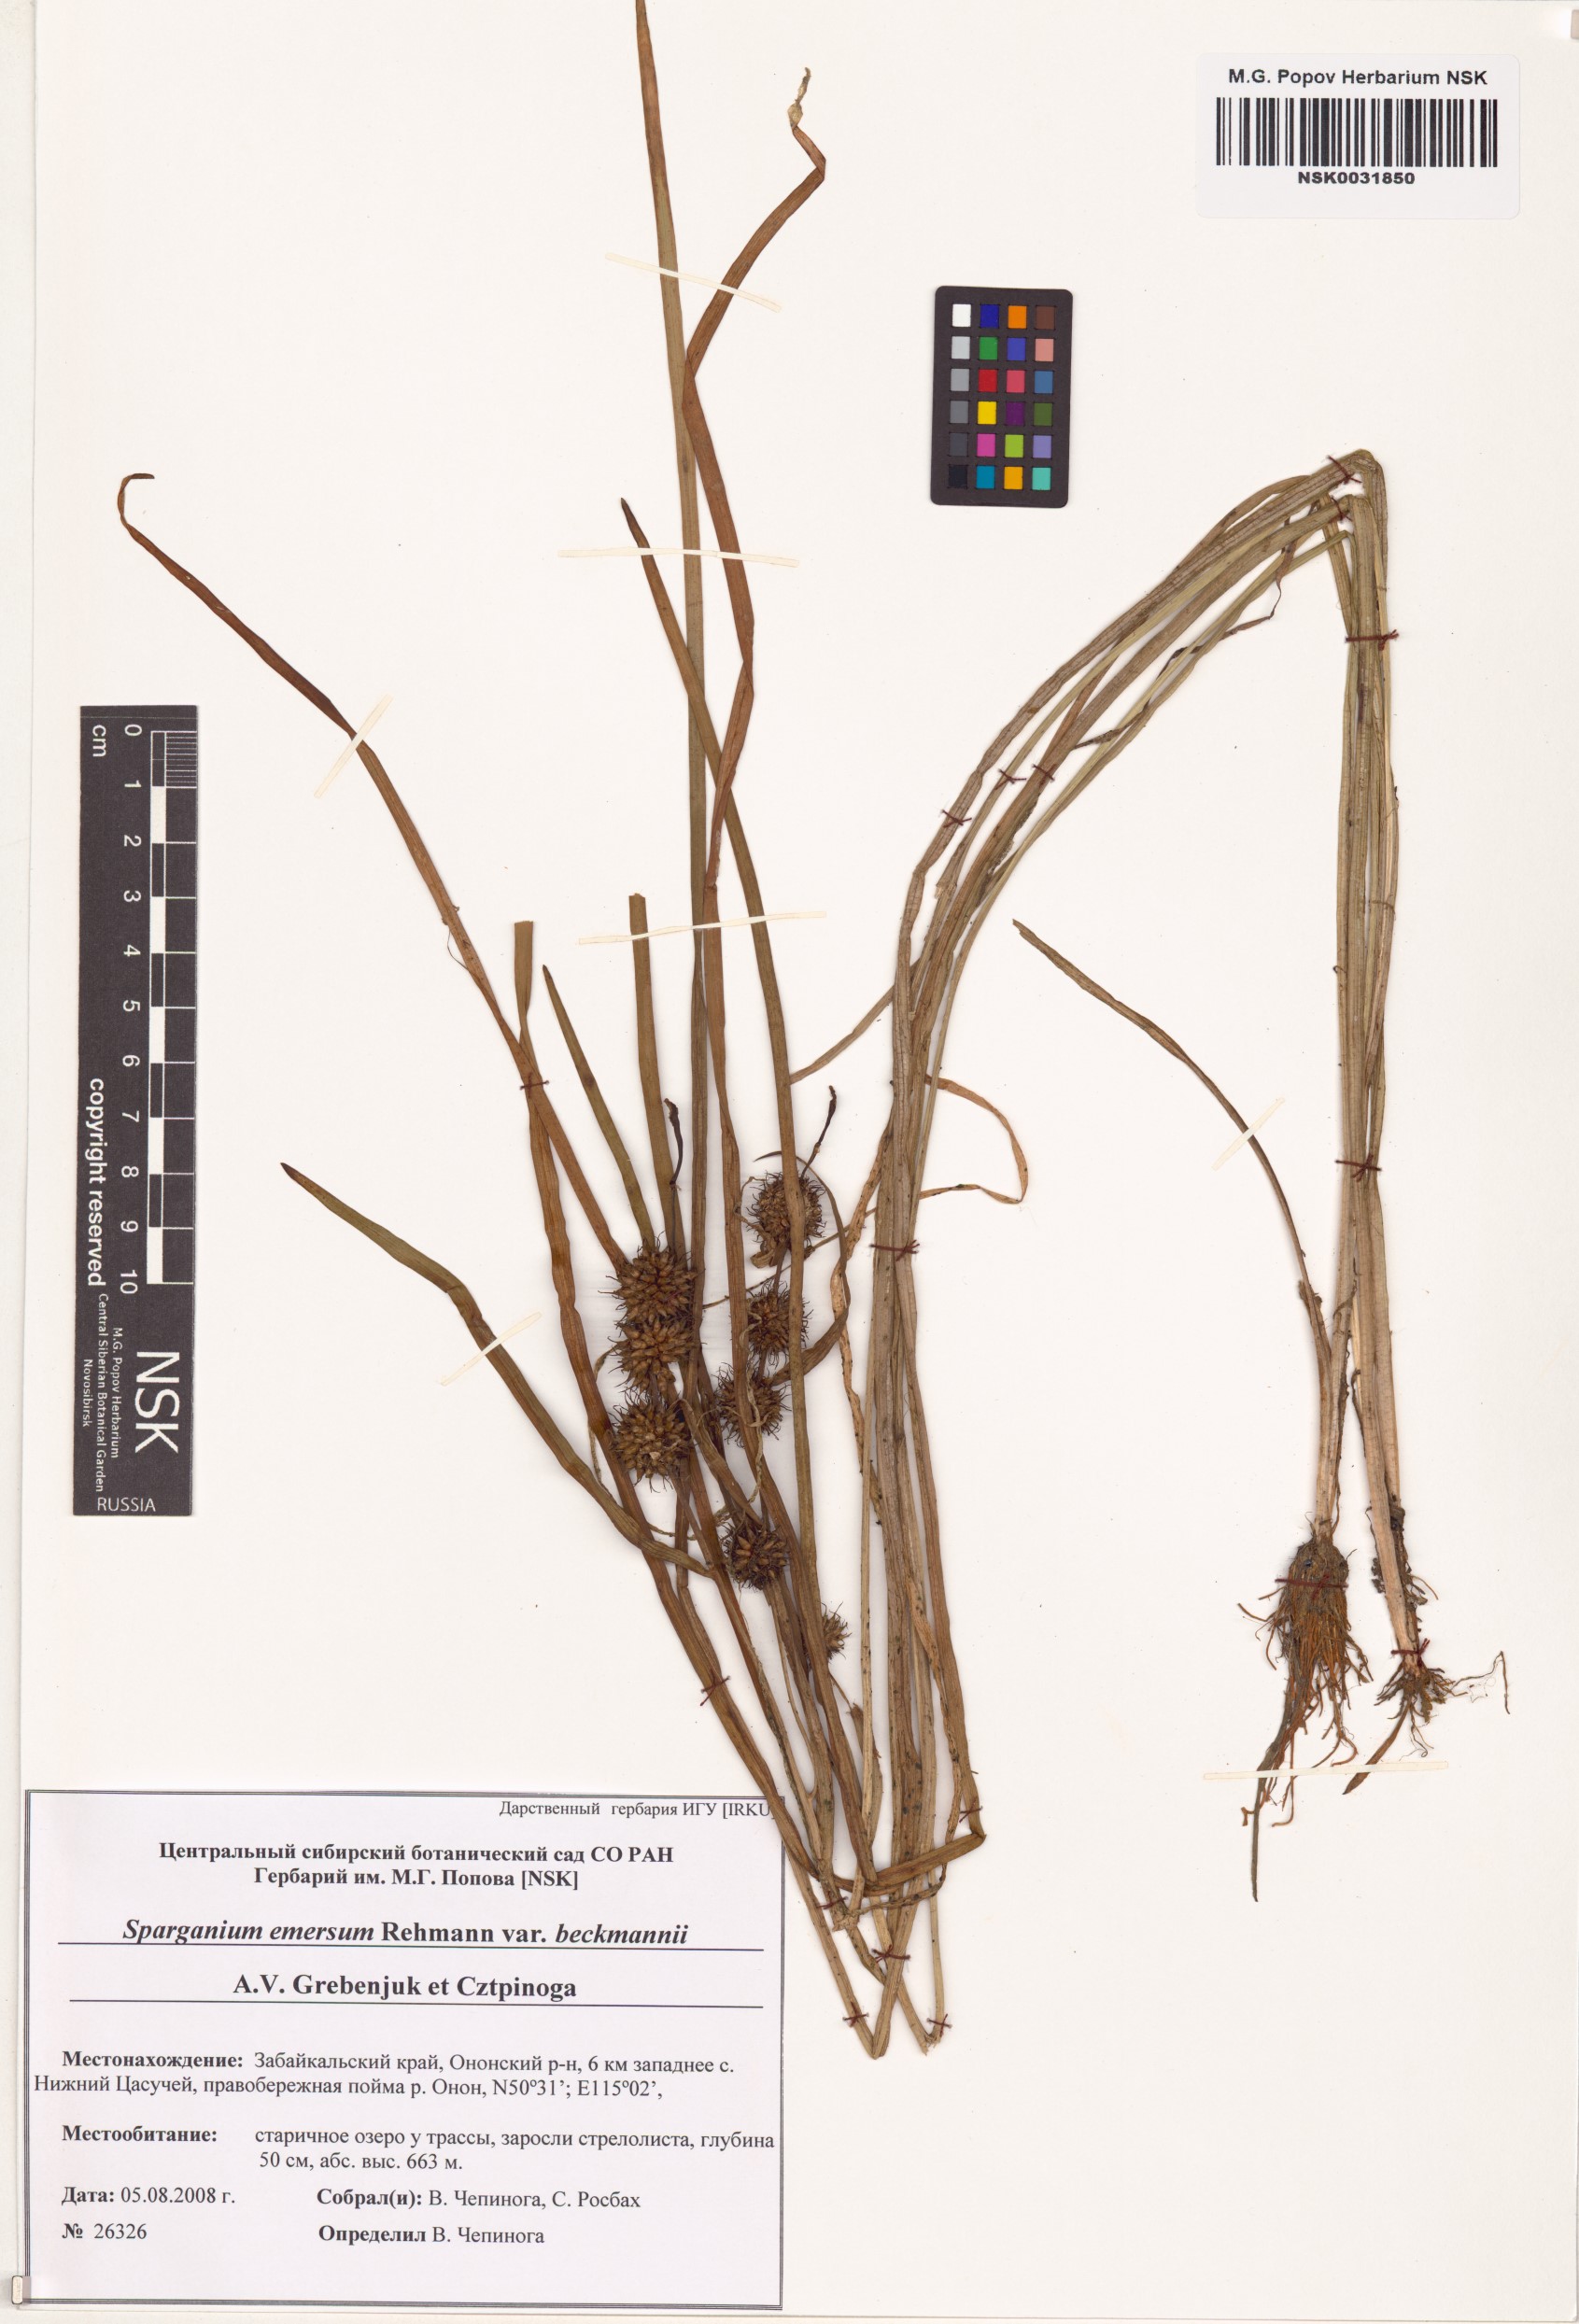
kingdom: Plantae
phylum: Tracheophyta
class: Liliopsida
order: Poales
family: Typhaceae
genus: Sparganium
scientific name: Sparganium emersum
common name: Unbranched bur-reed
